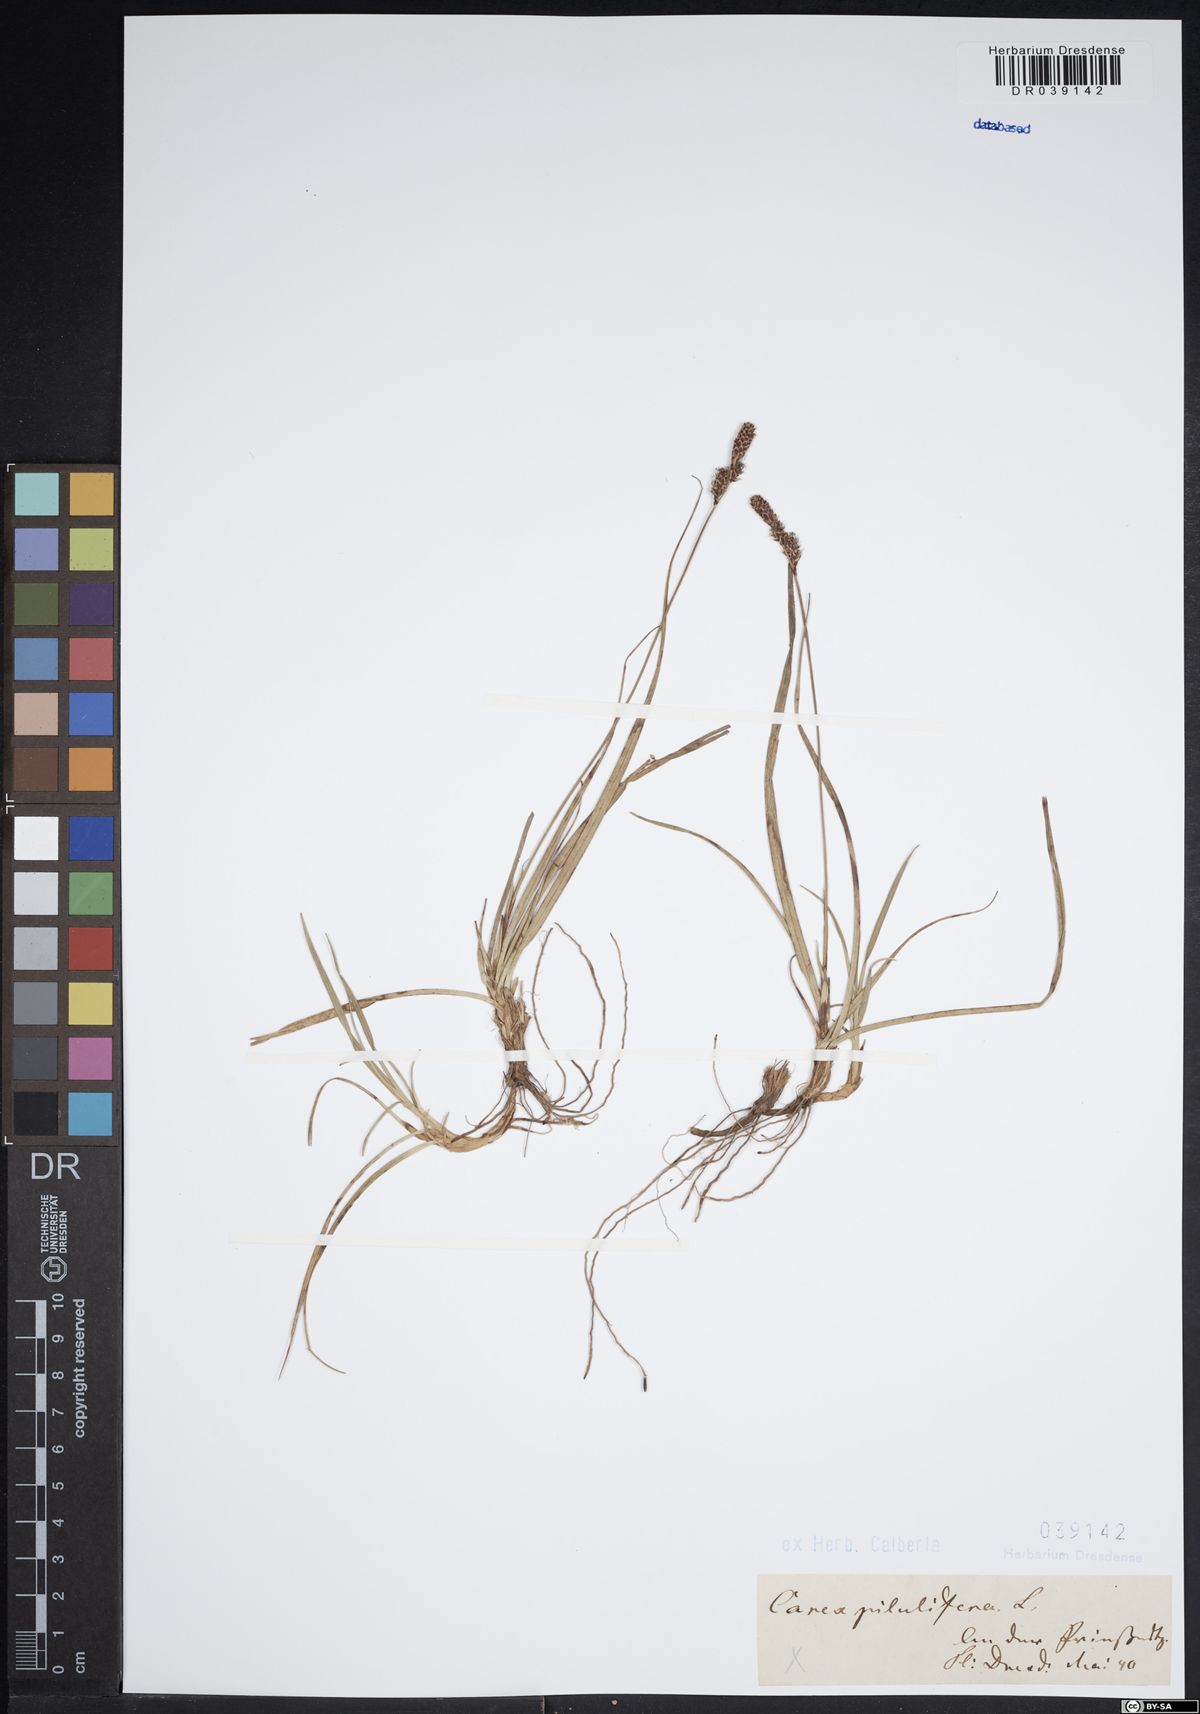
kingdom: Plantae
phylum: Tracheophyta
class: Liliopsida
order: Poales
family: Cyperaceae
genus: Carex
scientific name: Carex pilulifera
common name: Pill sedge
